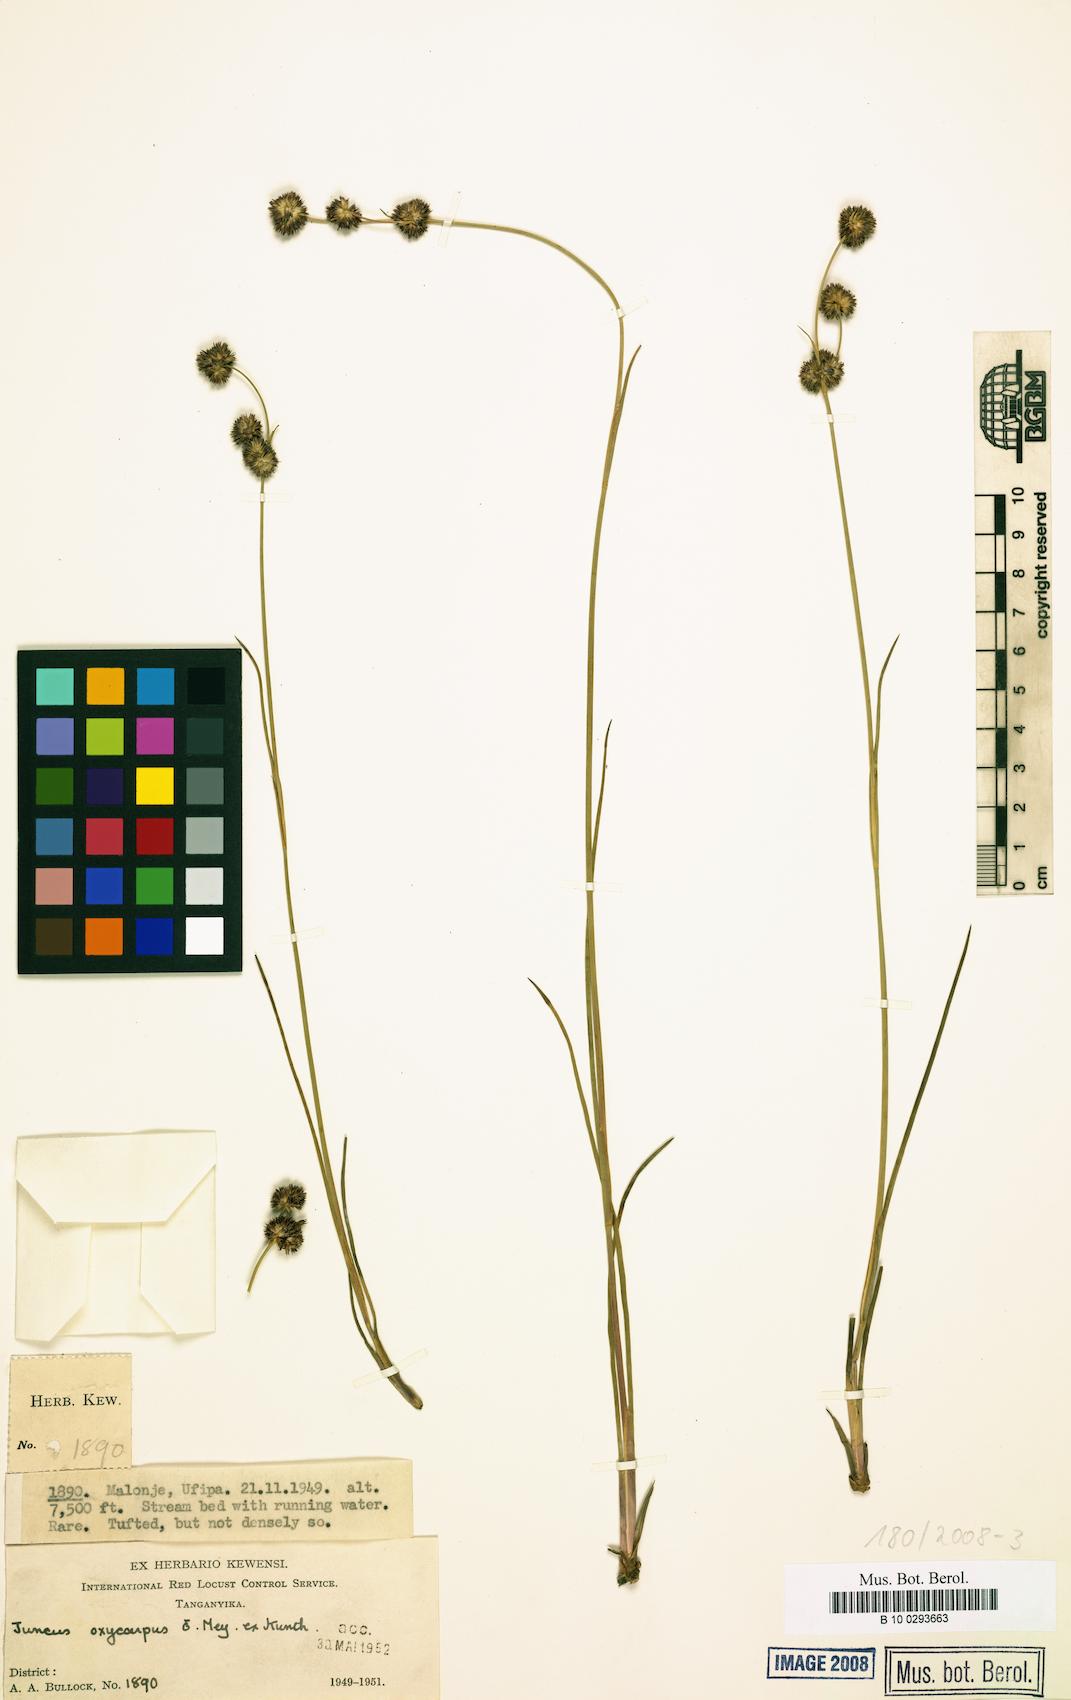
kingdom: Plantae
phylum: Tracheophyta
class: Liliopsida
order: Poales
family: Juncaceae
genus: Juncus
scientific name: Juncus oxycarpus
